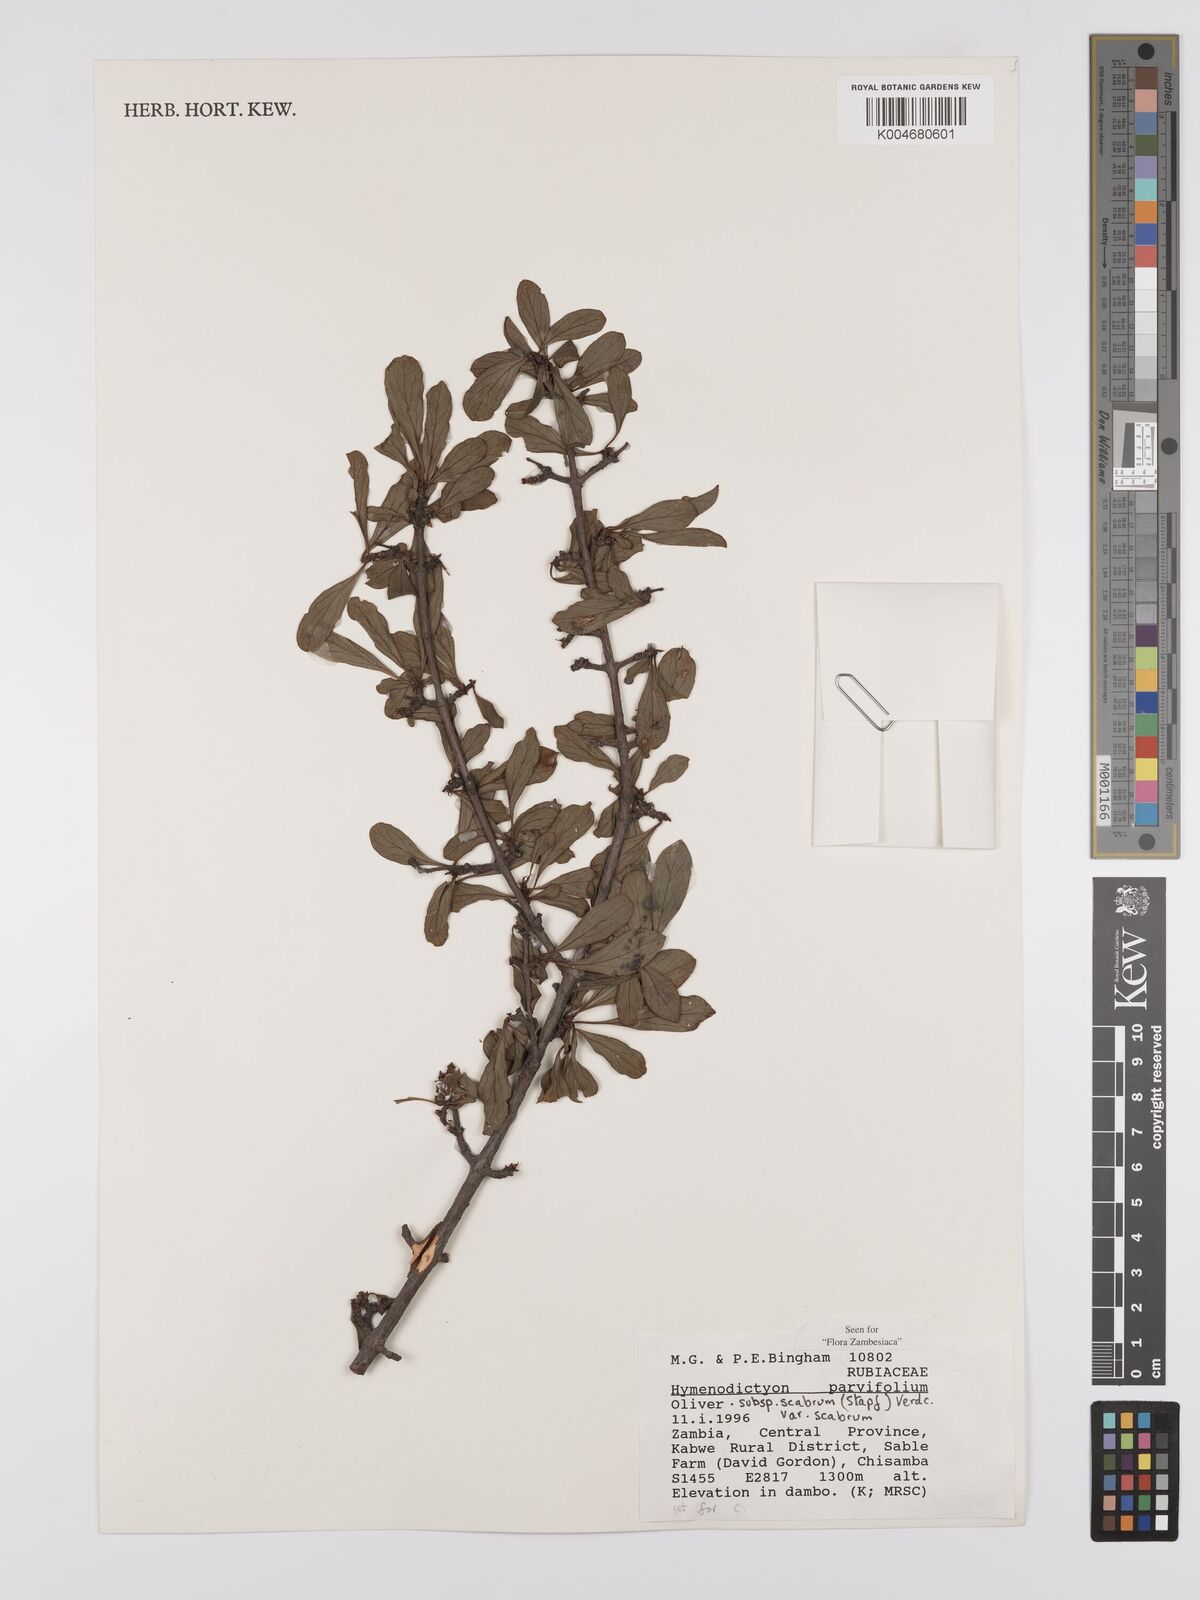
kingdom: Plantae
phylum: Tracheophyta
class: Magnoliopsida
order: Gentianales
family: Rubiaceae
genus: Hymenodictyon
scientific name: Hymenodictyon scabrum
